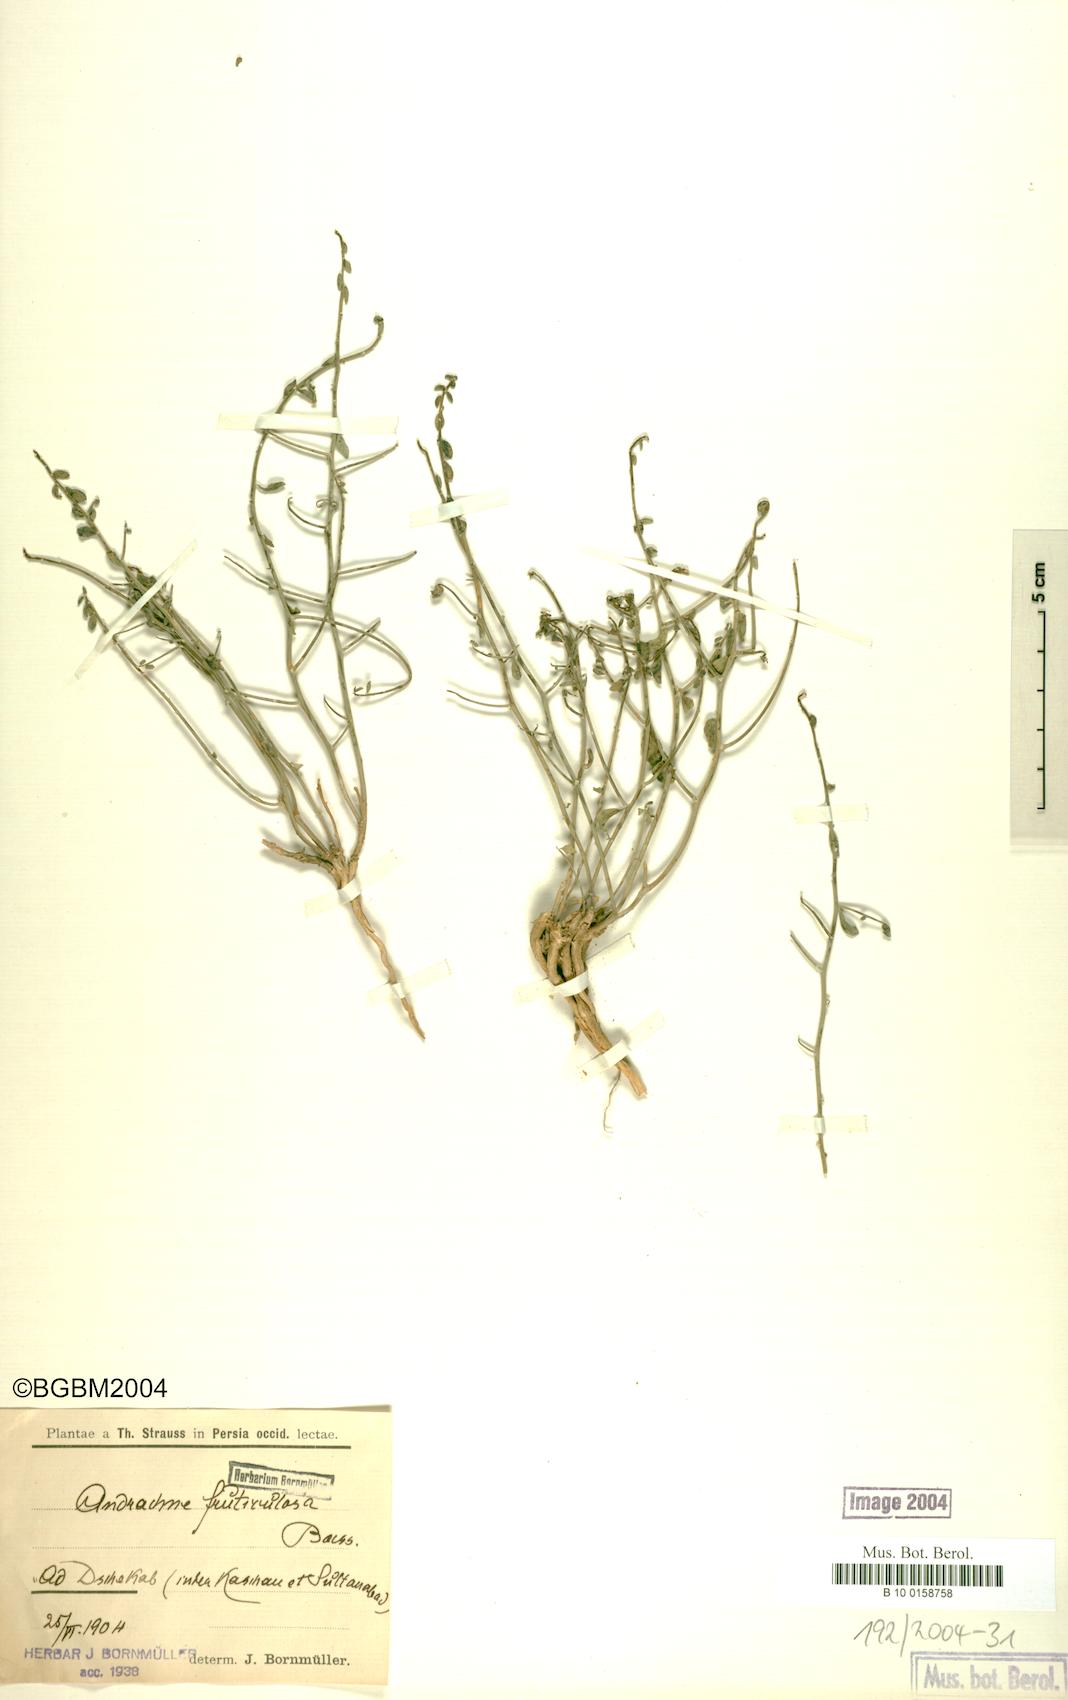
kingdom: Plantae
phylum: Tracheophyta
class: Magnoliopsida
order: Malpighiales
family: Phyllanthaceae
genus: Andrachne
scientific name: Andrachne fruticulosa
